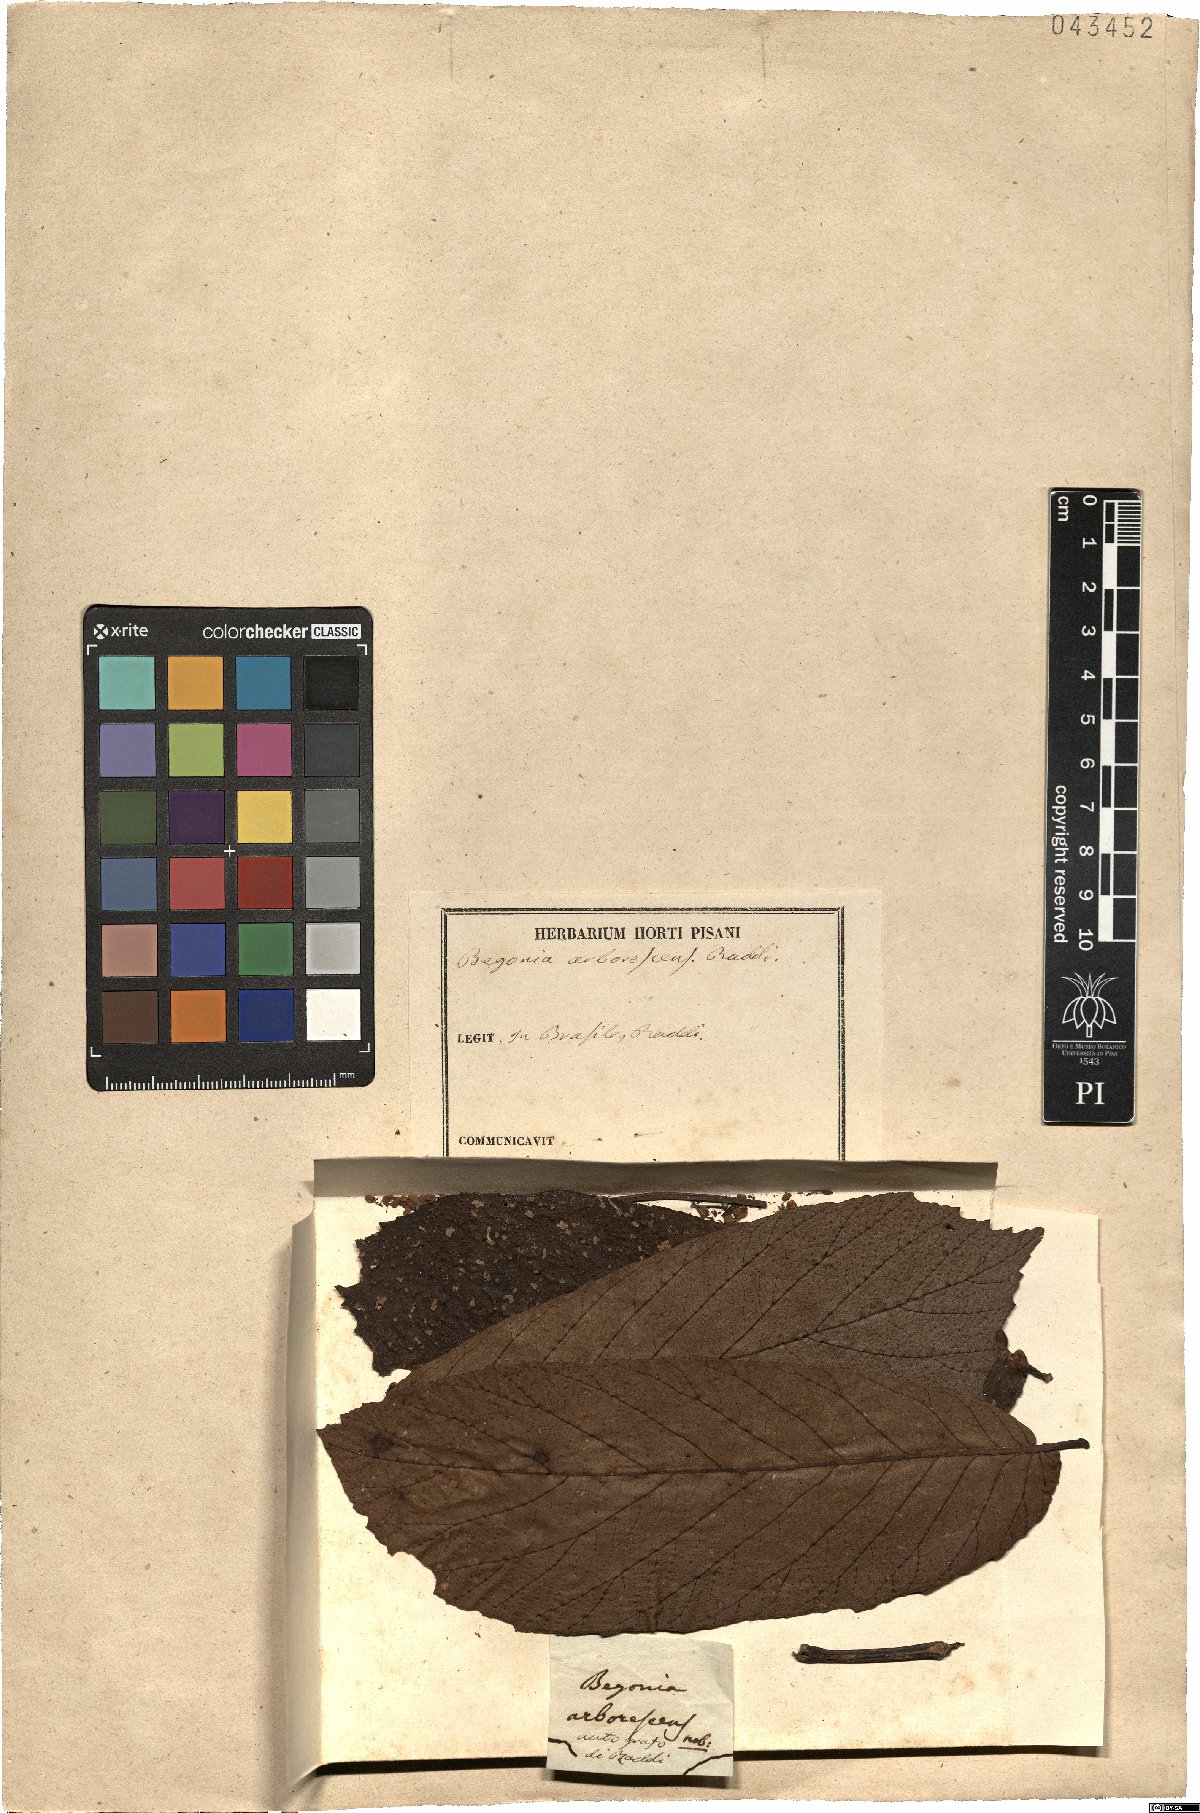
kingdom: Plantae
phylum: Tracheophyta
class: Magnoliopsida
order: Cucurbitales
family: Begoniaceae
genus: Begonia
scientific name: Begonia arborescens
